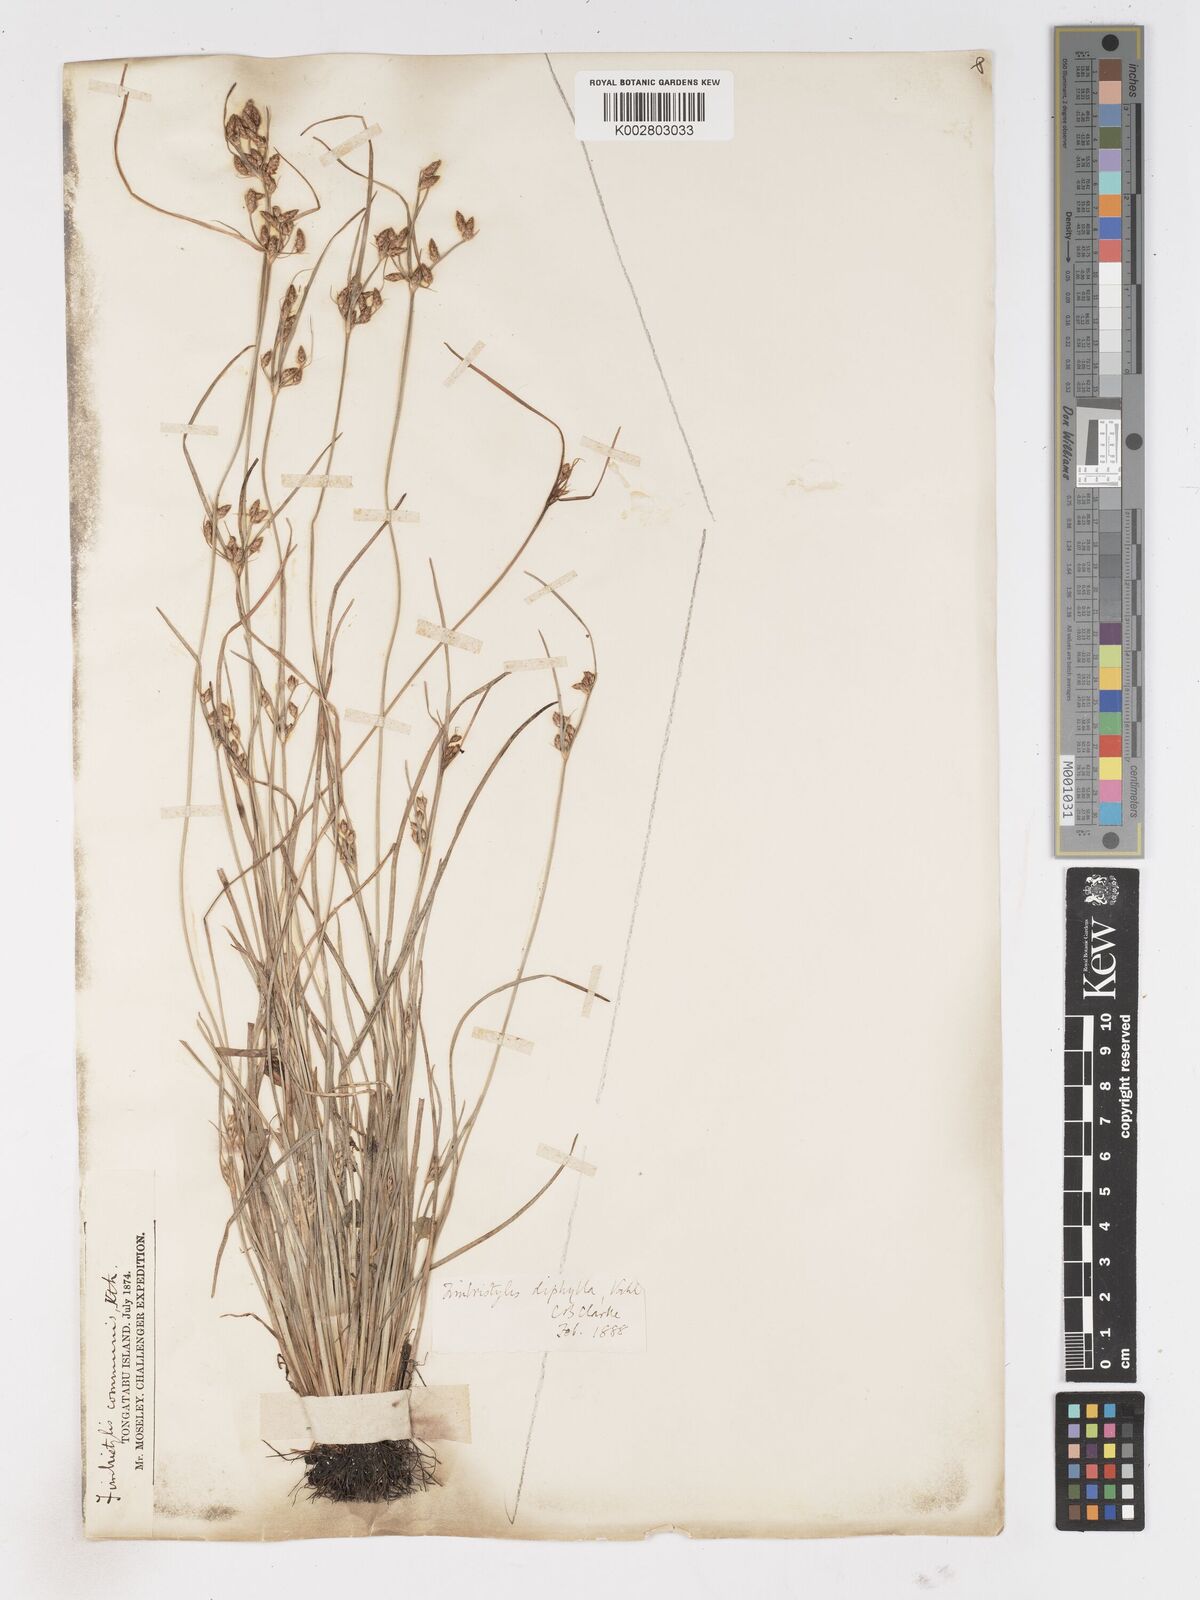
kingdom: Plantae
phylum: Tracheophyta
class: Liliopsida
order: Poales
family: Cyperaceae
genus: Fimbristylis
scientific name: Fimbristylis dichotoma
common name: Forked fimbry
